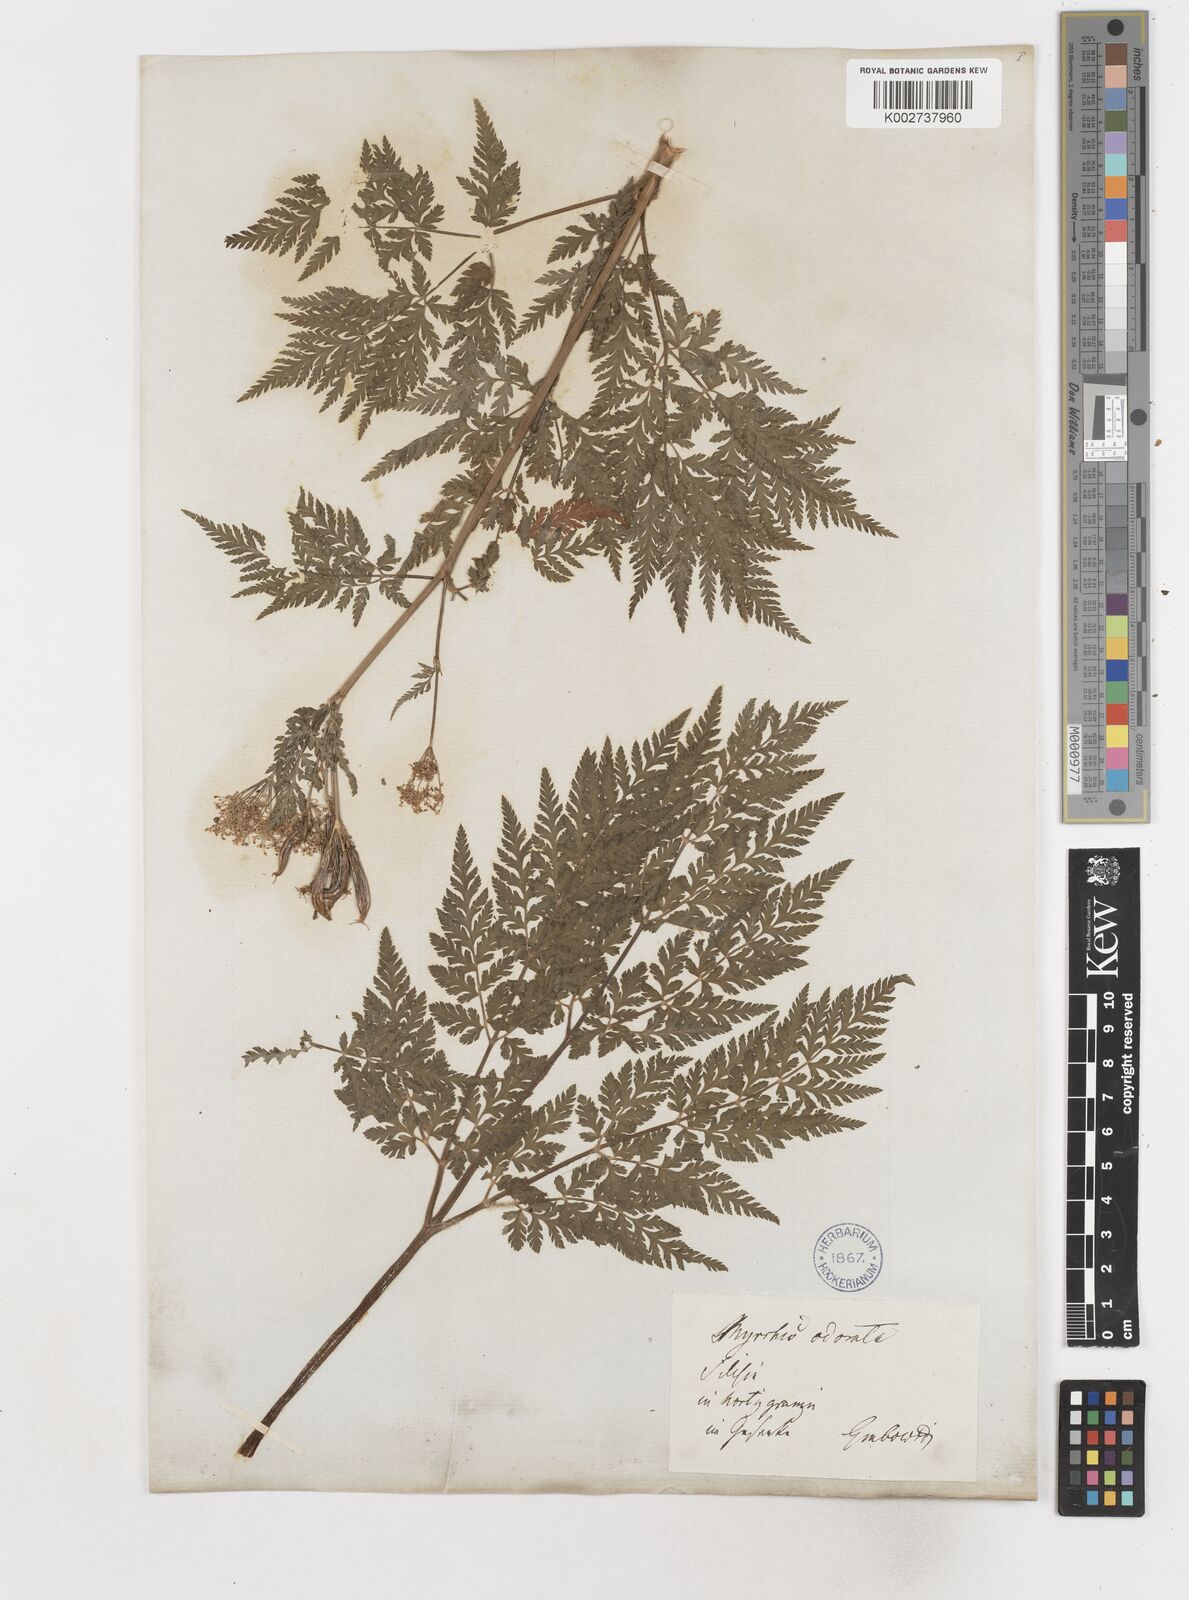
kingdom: Plantae
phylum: Tracheophyta
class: Magnoliopsida
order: Apiales
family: Apiaceae
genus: Myrrhis
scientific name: Myrrhis odorata
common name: Sweet cicely
